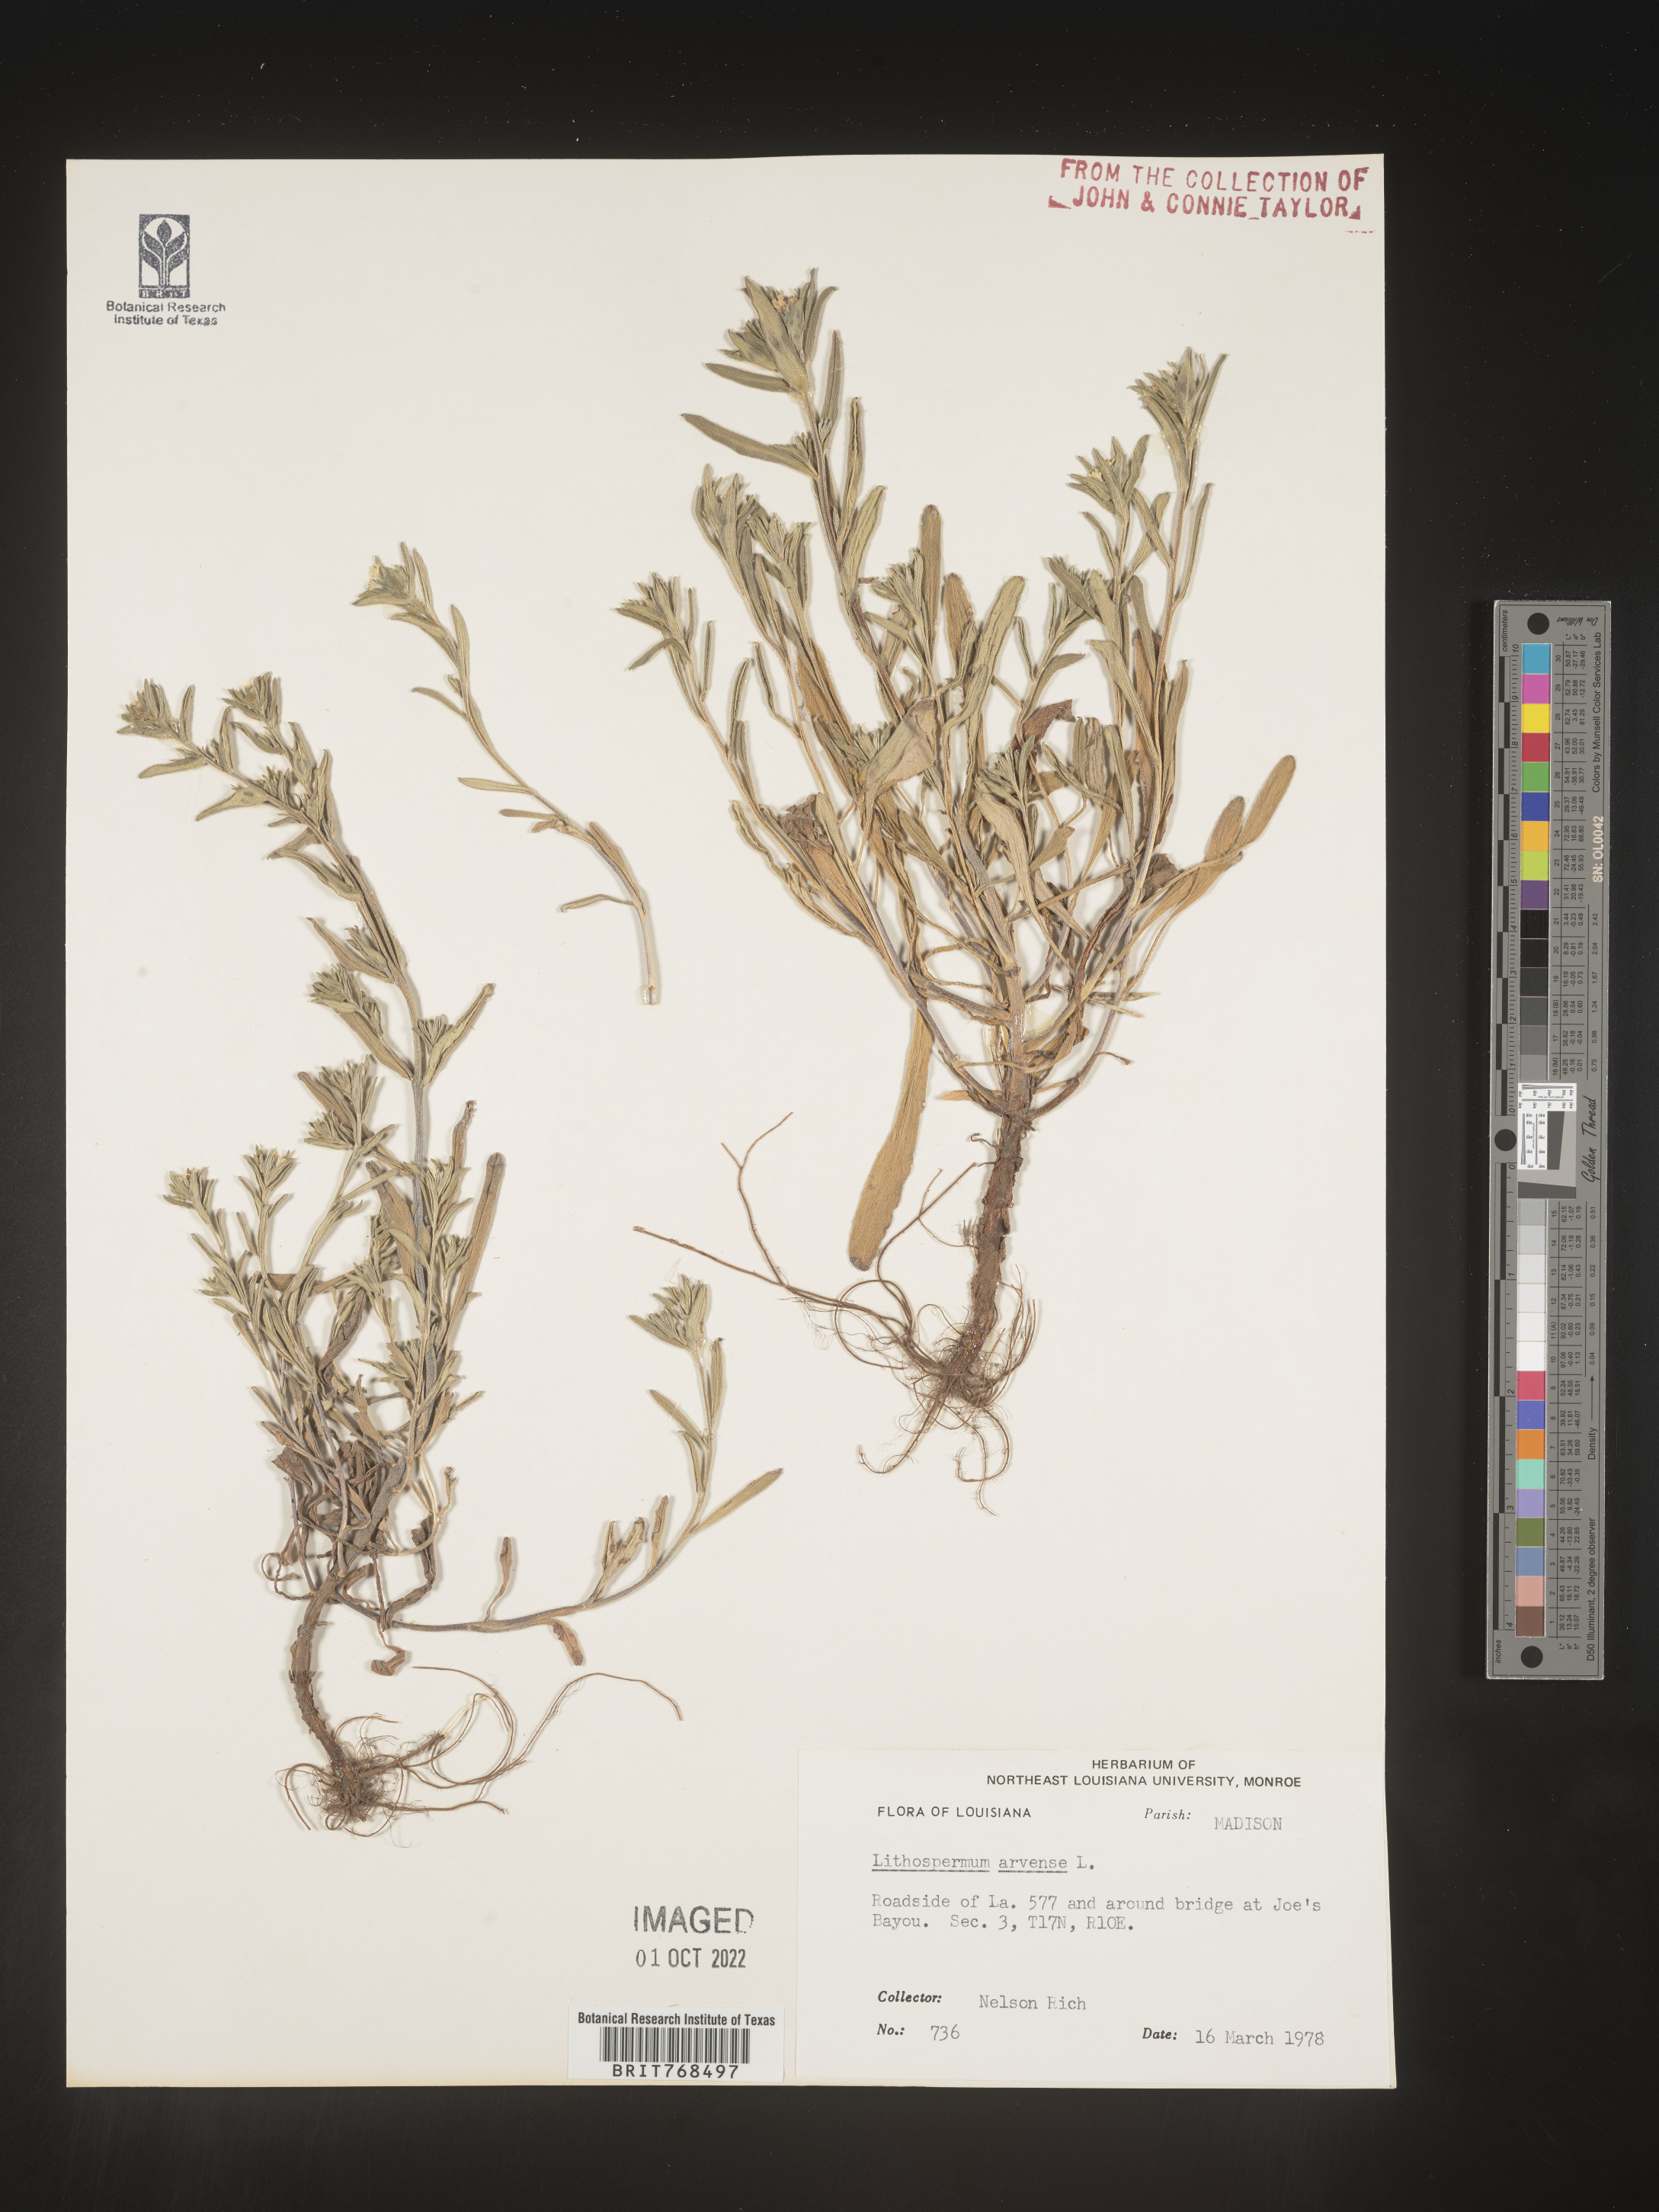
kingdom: Plantae
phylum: Tracheophyta
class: Magnoliopsida
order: Boraginales
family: Boraginaceae
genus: Lithospermum
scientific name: Lithospermum
